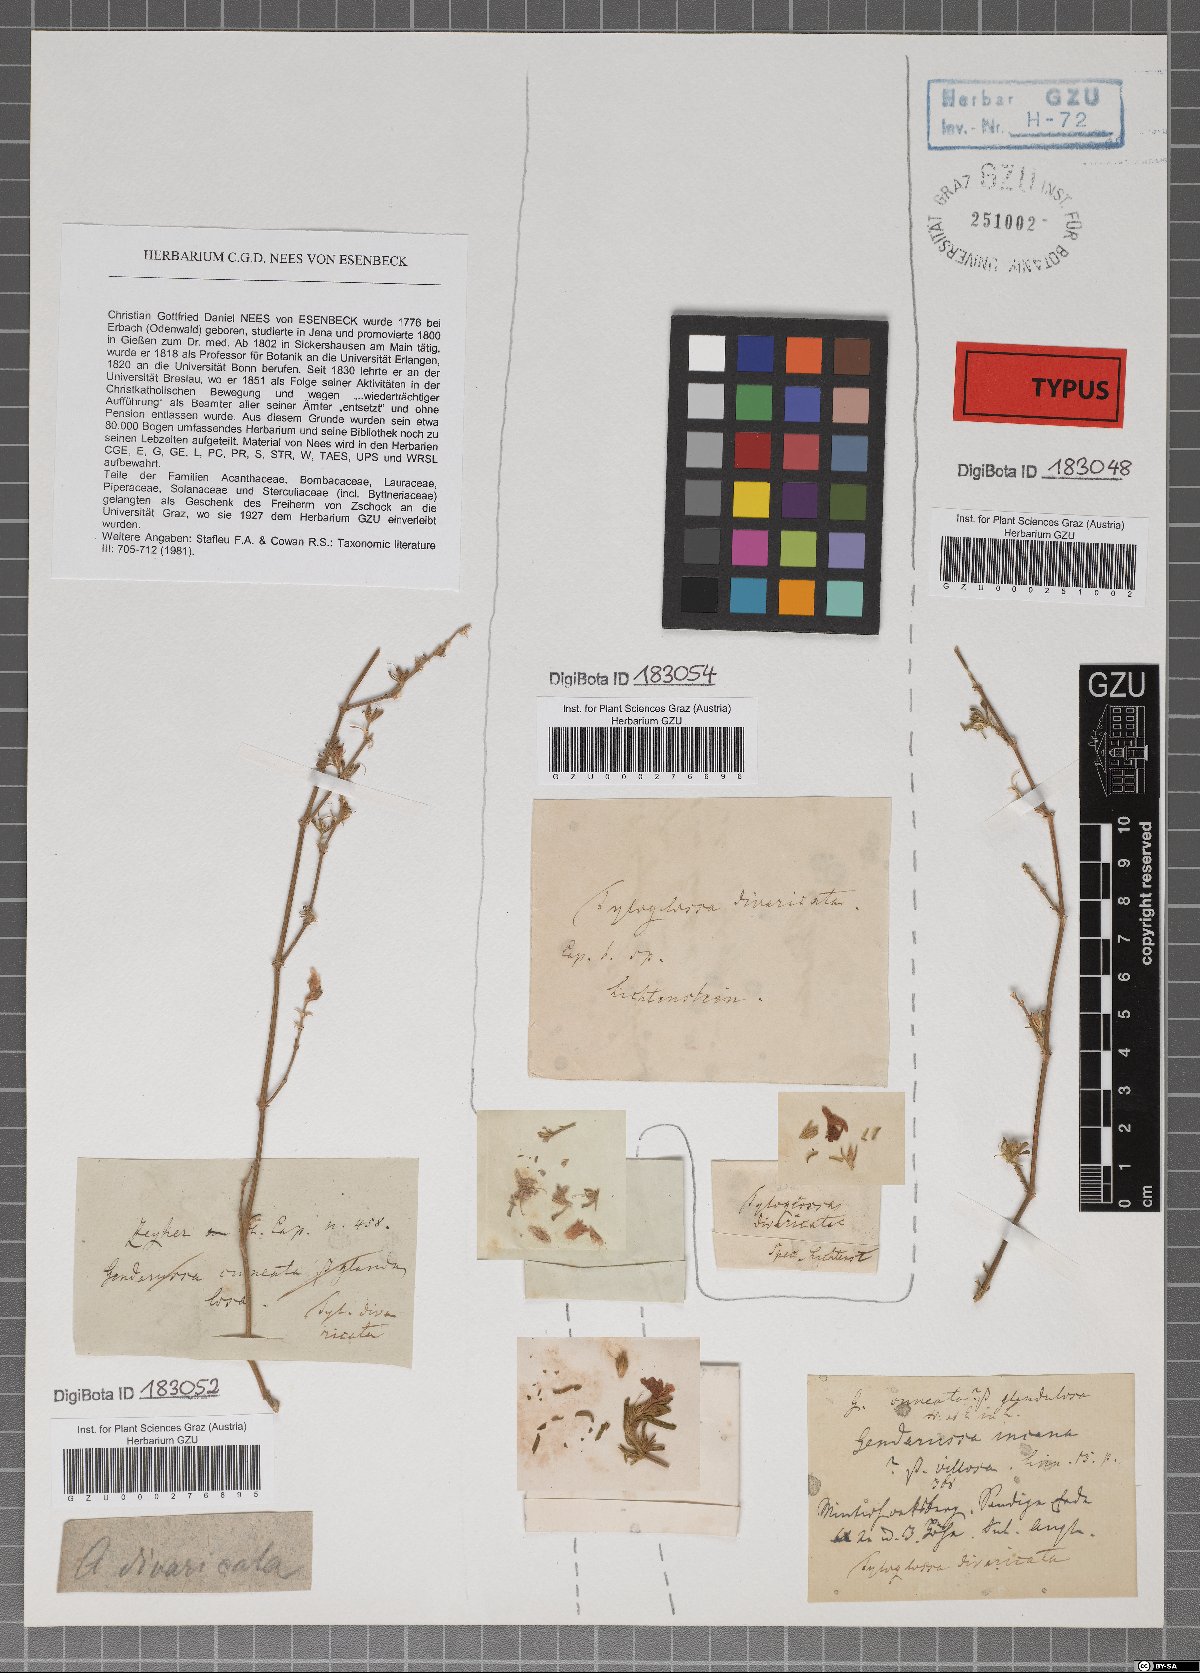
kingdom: Plantae
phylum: Tracheophyta
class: Magnoliopsida
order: Lamiales
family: Acanthaceae
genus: Monechma
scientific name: Monechma divaricatum
